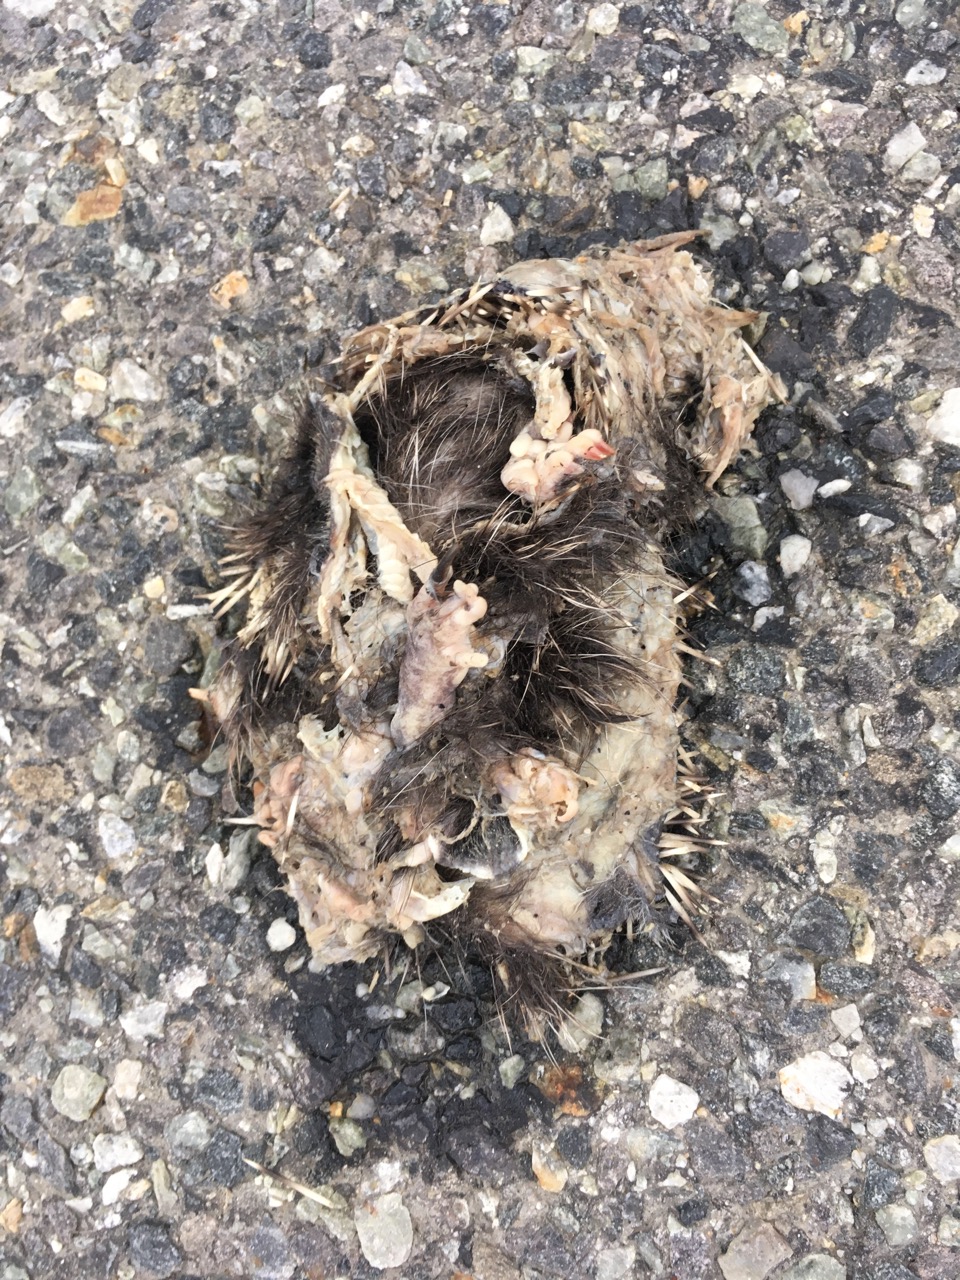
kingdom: Animalia
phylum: Chordata
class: Mammalia
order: Erinaceomorpha
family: Erinaceidae
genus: Erinaceus
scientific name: Erinaceus
